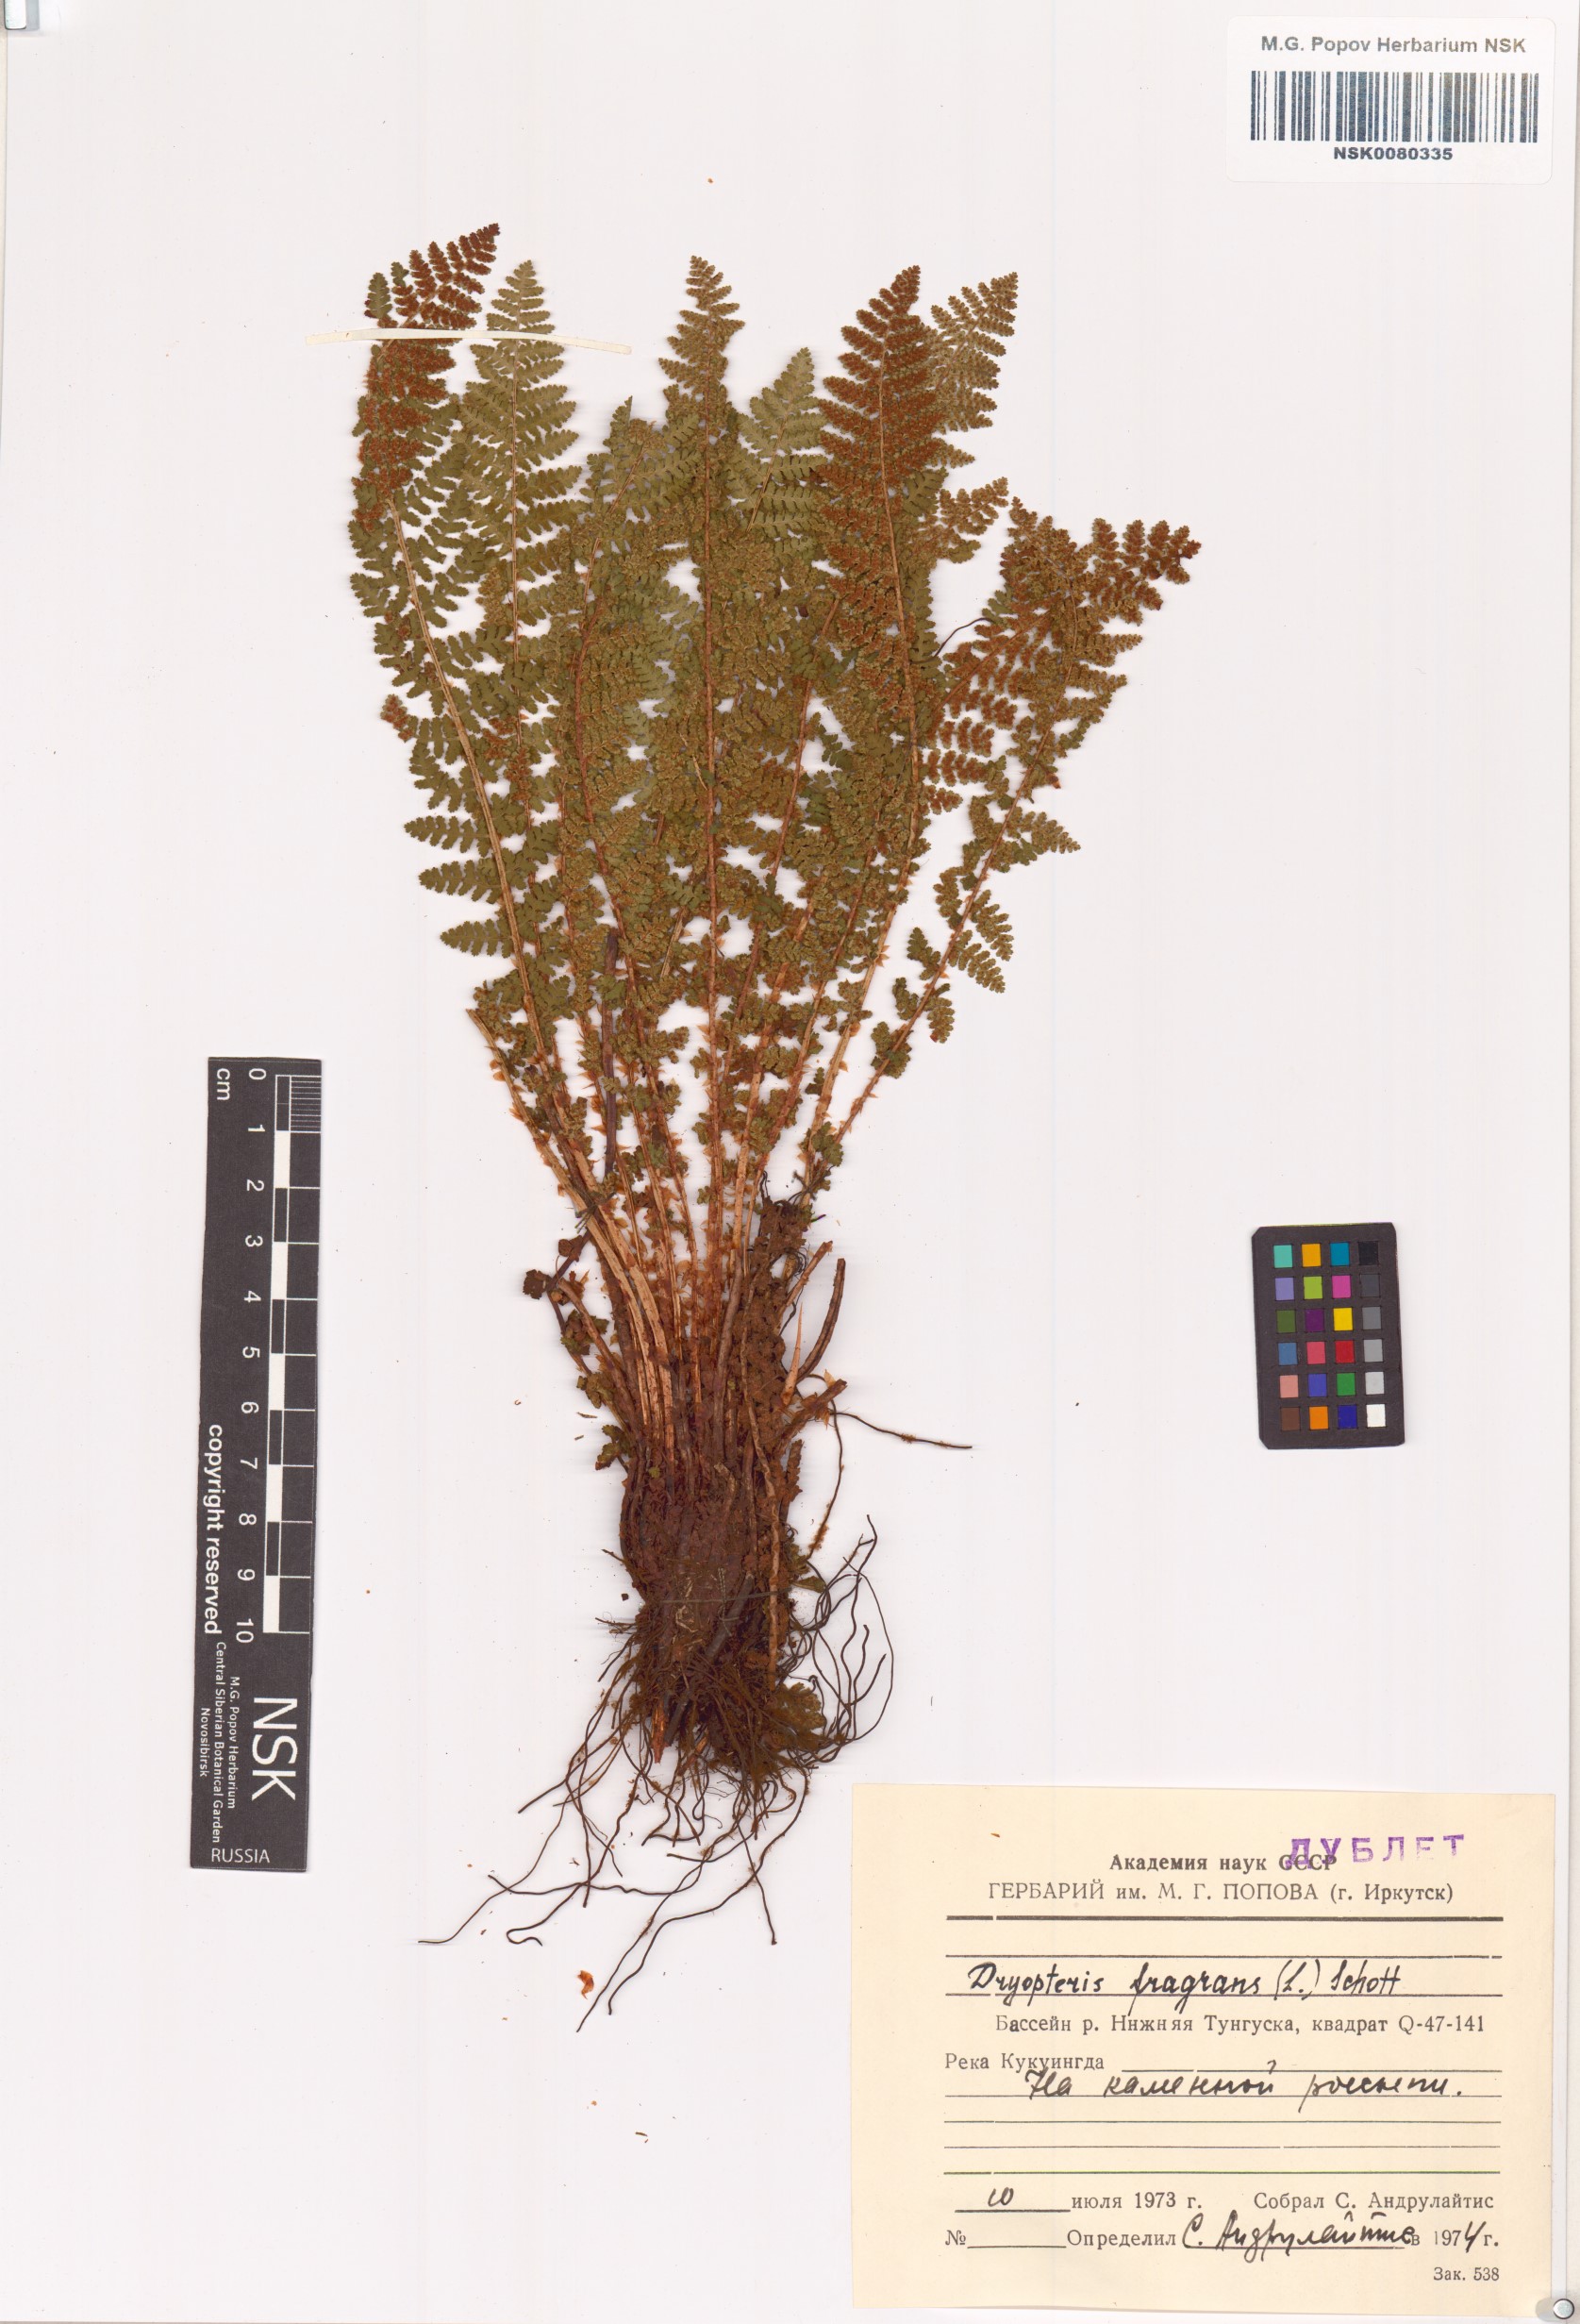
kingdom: Plantae
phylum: Tracheophyta
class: Polypodiopsida
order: Polypodiales
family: Dryopteridaceae
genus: Dryopteris
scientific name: Dryopteris fragrans
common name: Fragrant wood fern
